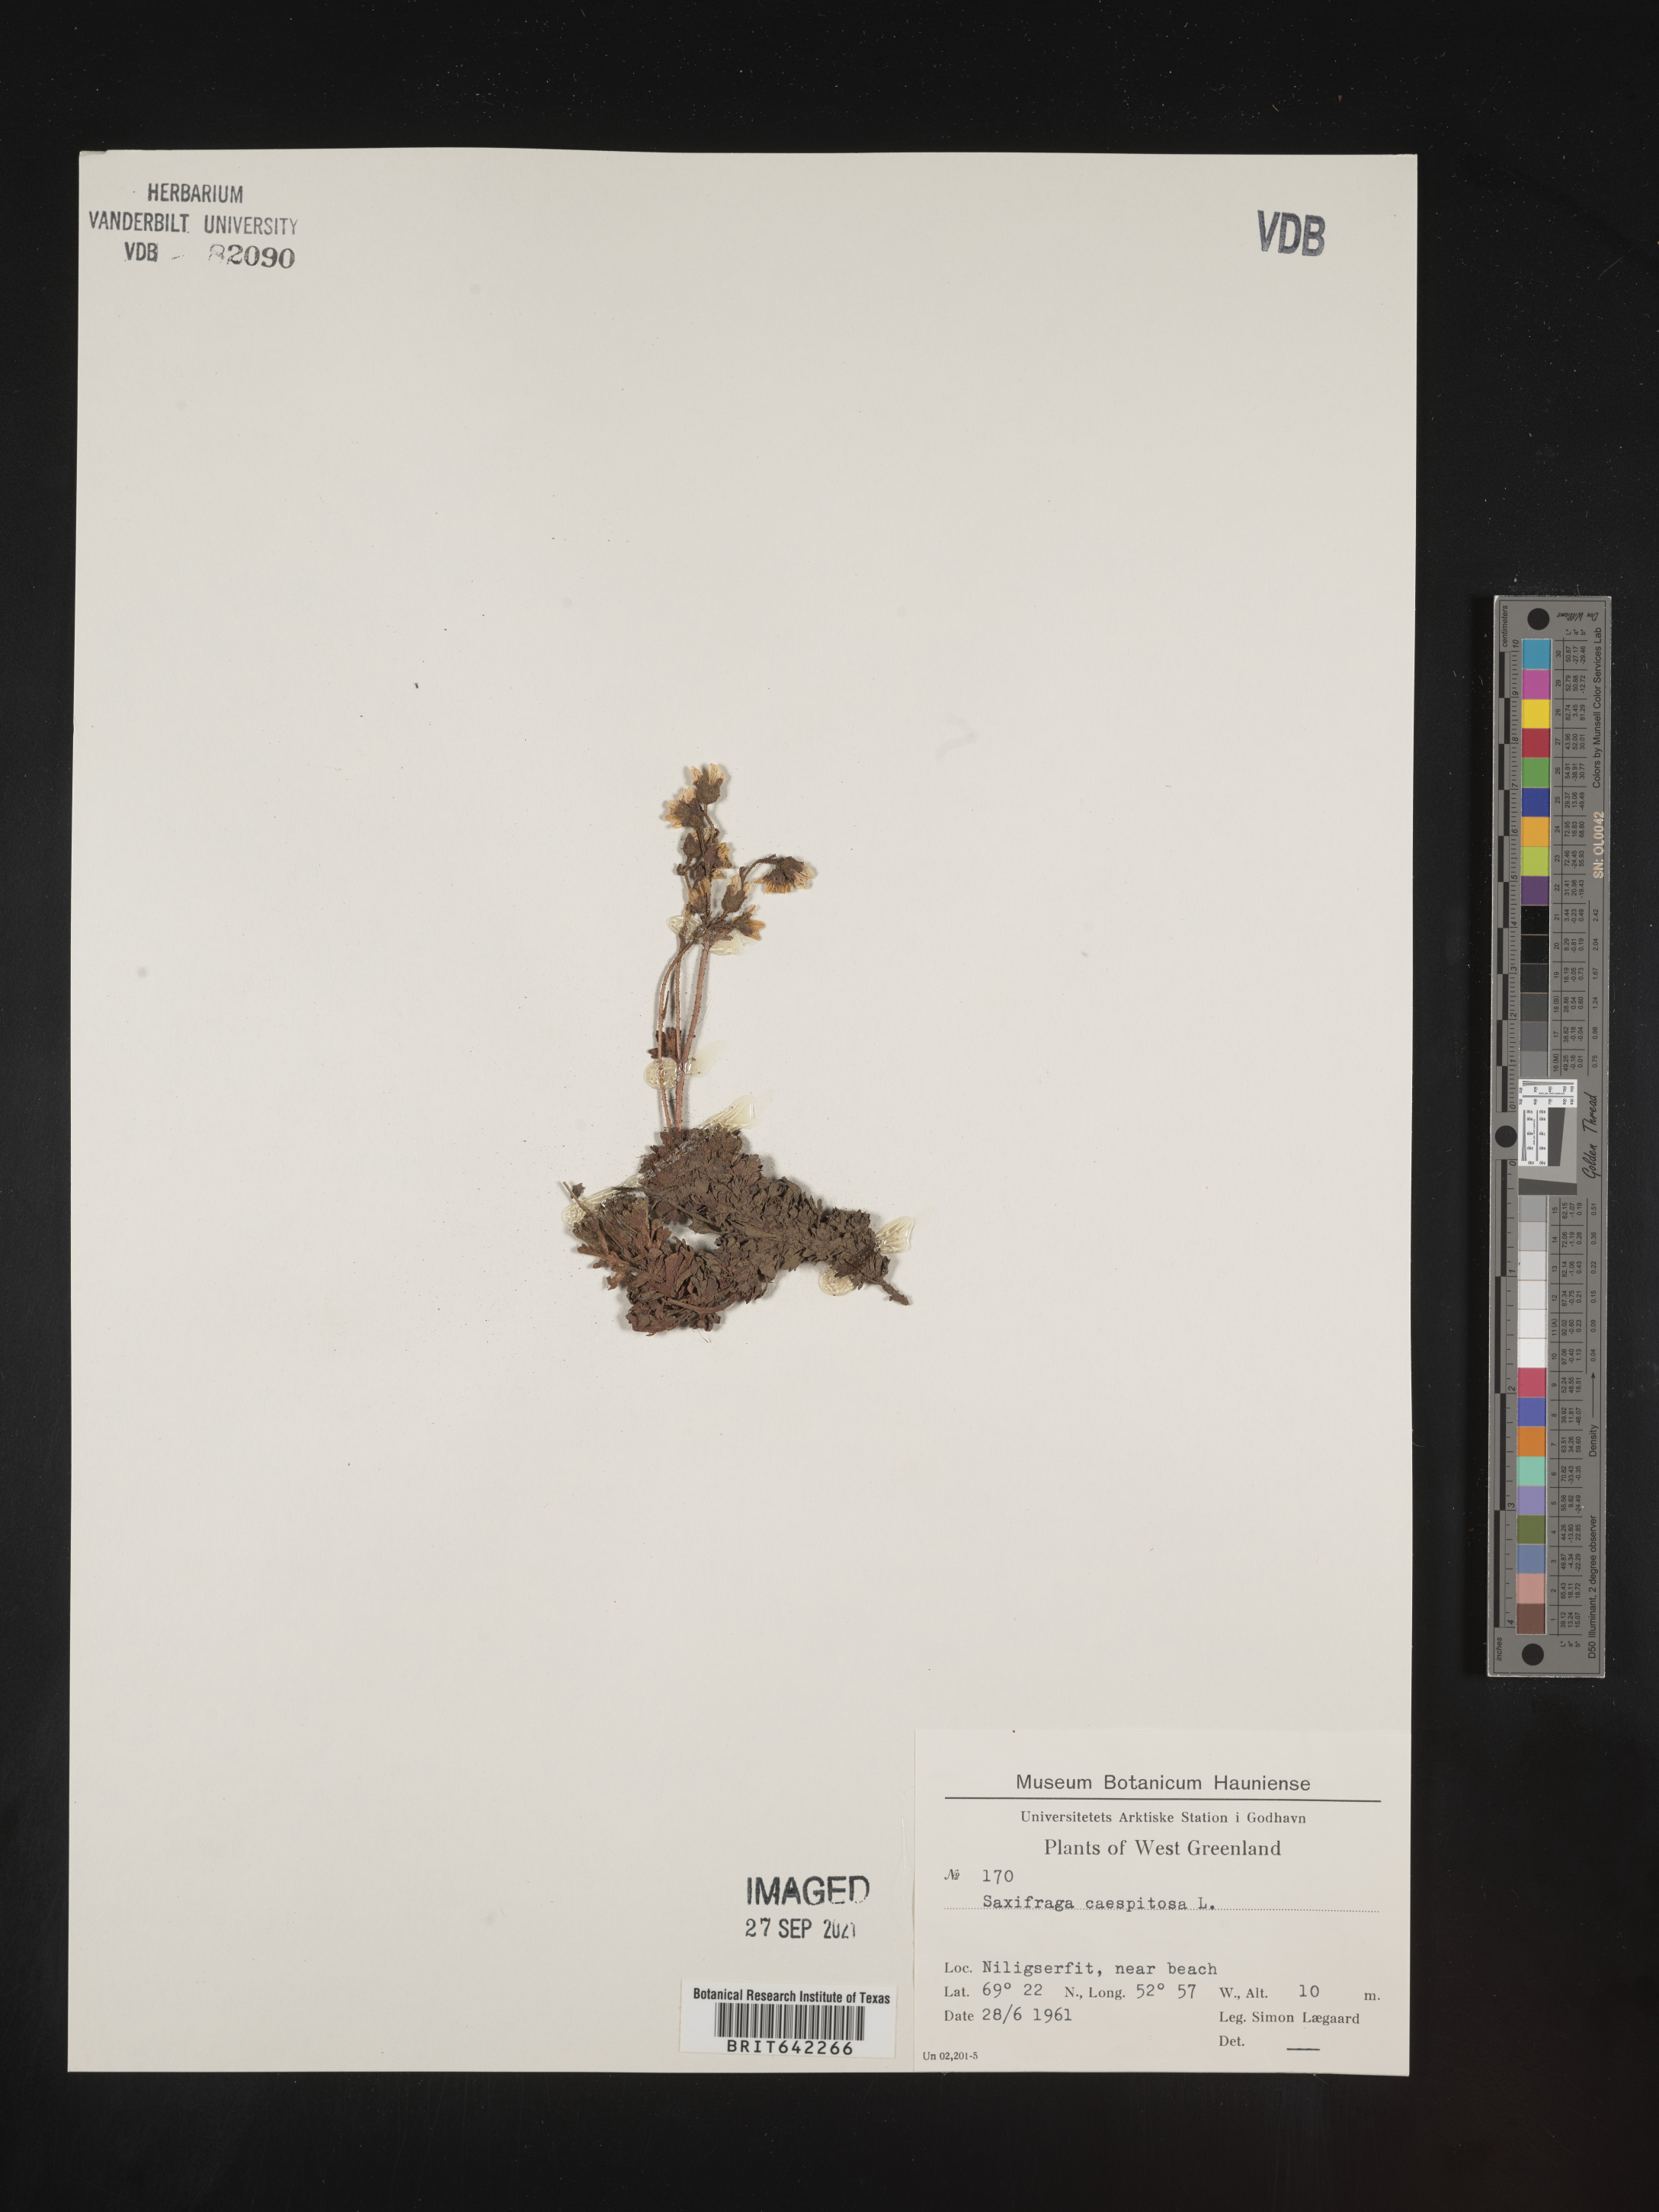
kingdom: Plantae
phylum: Tracheophyta
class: Magnoliopsida
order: Saxifragales
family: Saxifragaceae
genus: Saxifraga
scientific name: Saxifraga
